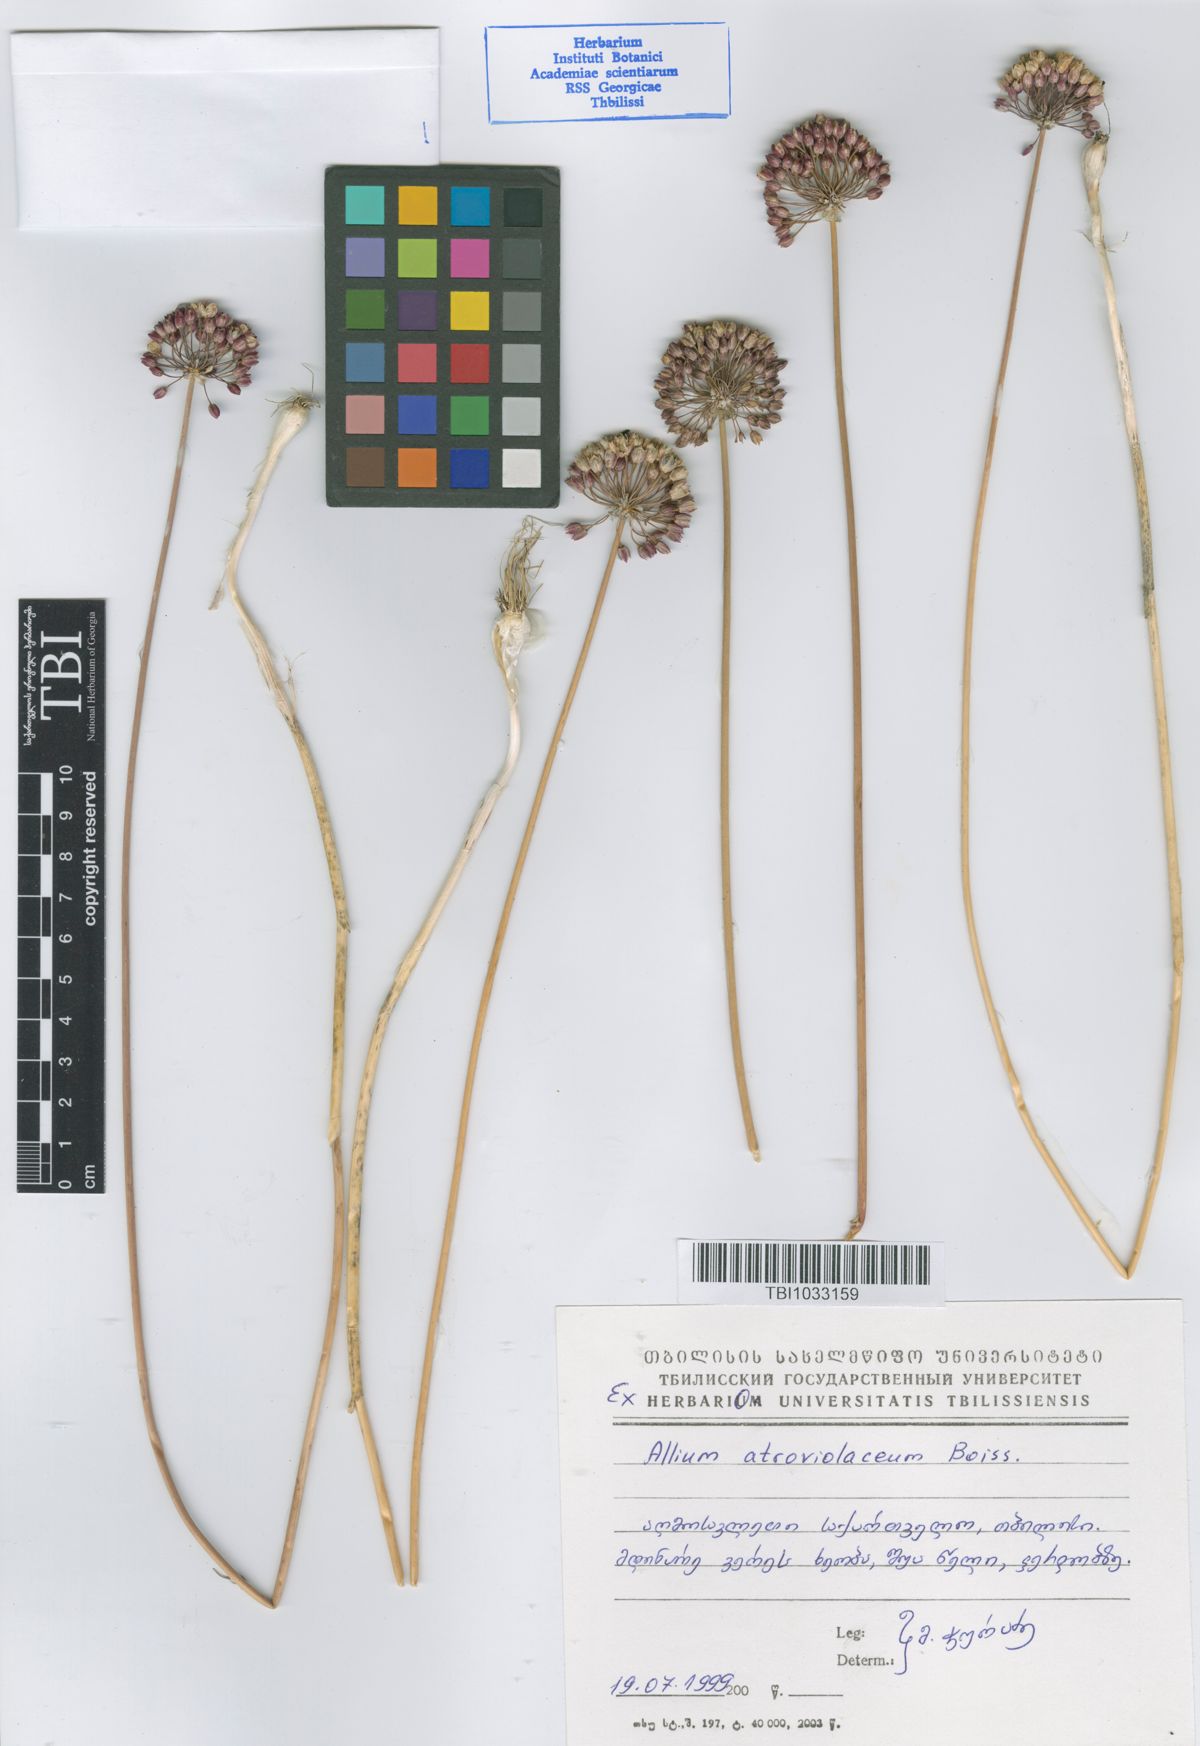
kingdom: Plantae
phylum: Tracheophyta
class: Liliopsida
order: Asparagales
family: Amaryllidaceae
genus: Allium
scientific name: Allium atroviolaceum
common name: Broadleaf wild leek
